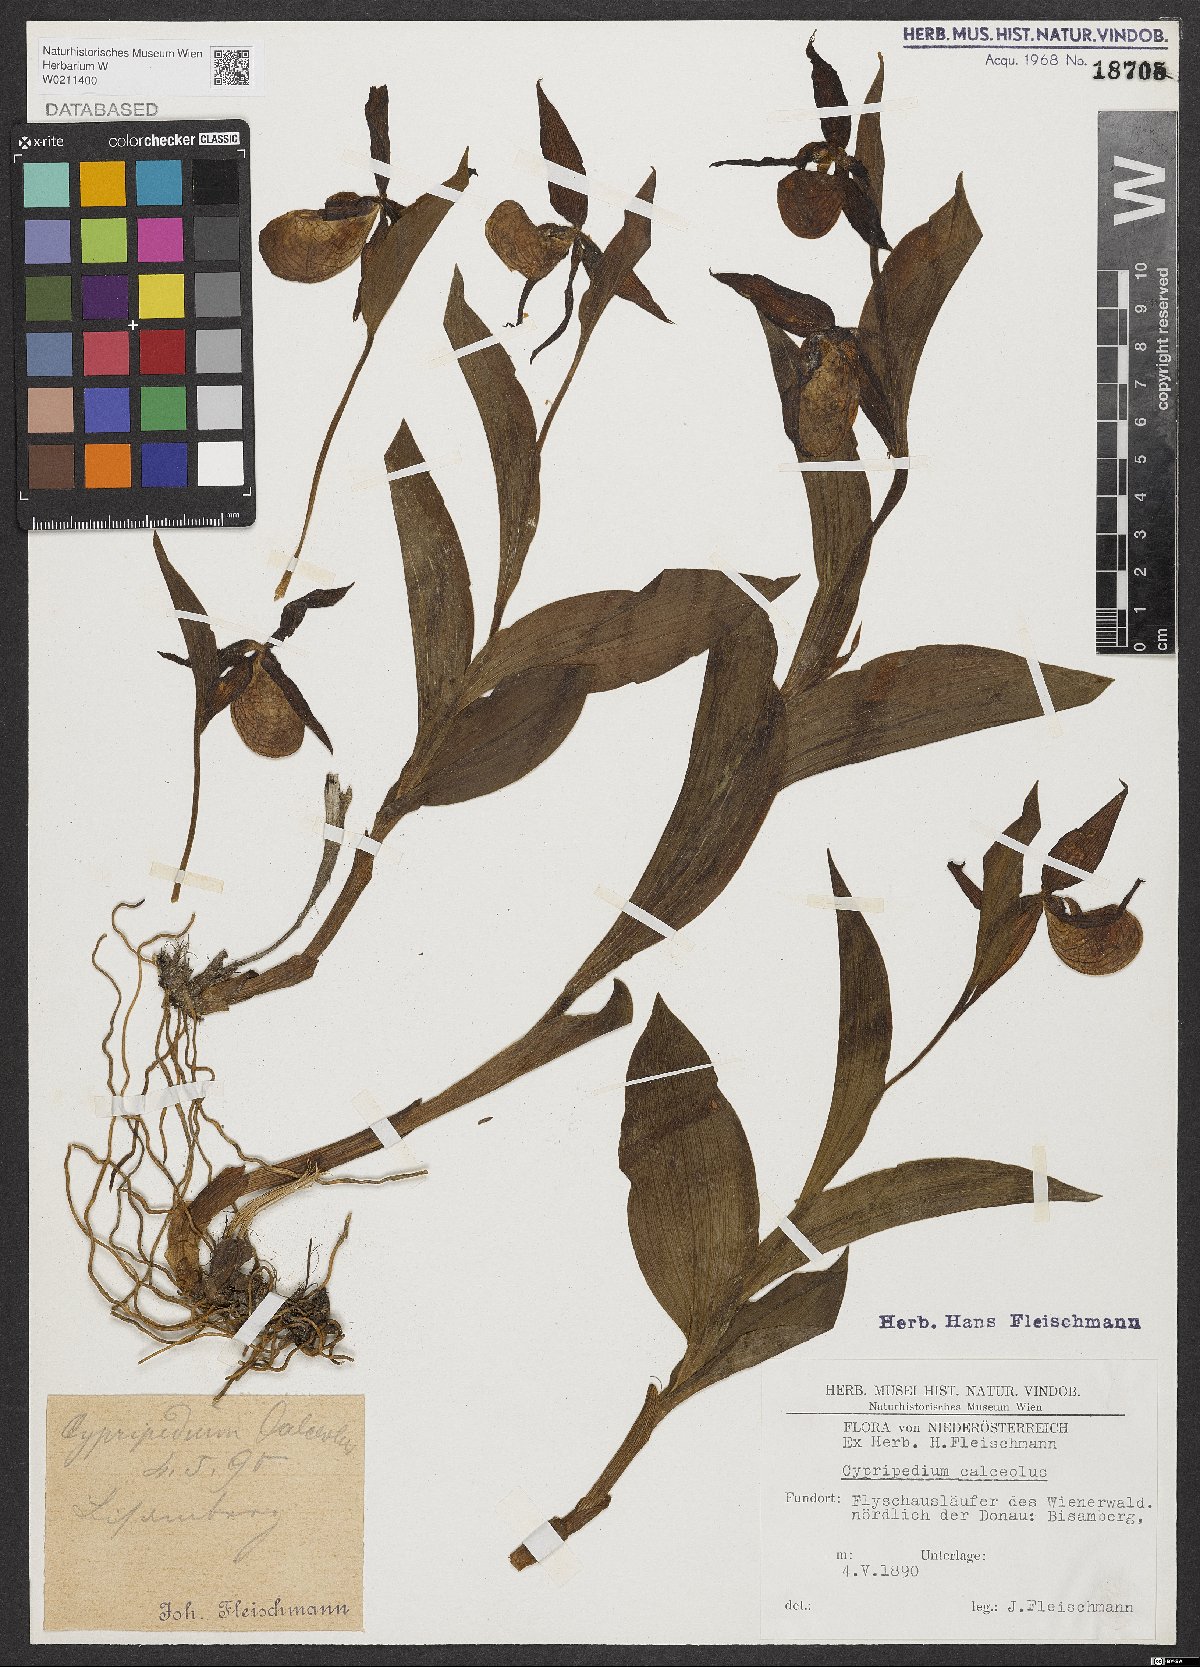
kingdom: Plantae
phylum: Tracheophyta
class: Liliopsida
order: Asparagales
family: Orchidaceae
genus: Cypripedium
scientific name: Cypripedium calceolus
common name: Lady's-slipper
